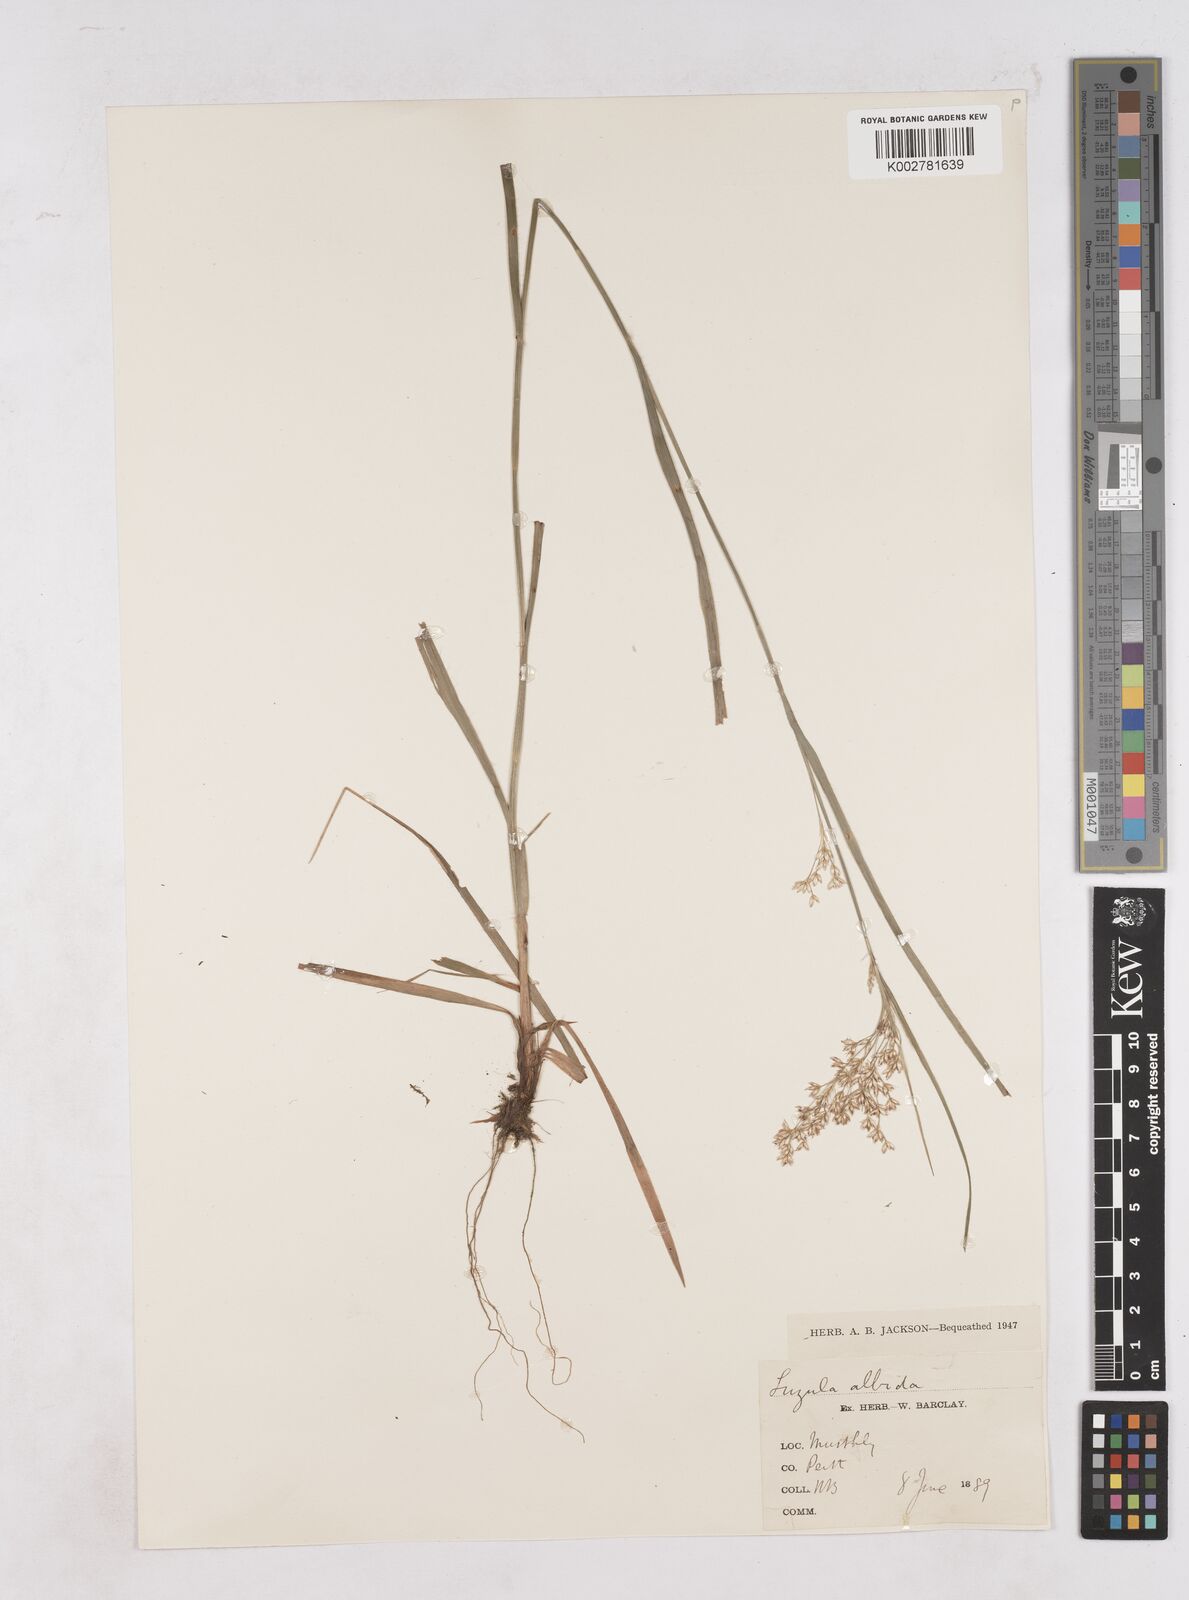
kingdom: Plantae
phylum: Tracheophyta
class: Liliopsida
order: Poales
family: Juncaceae
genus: Luzula
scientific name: Luzula luzuloides
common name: White wood-rush
